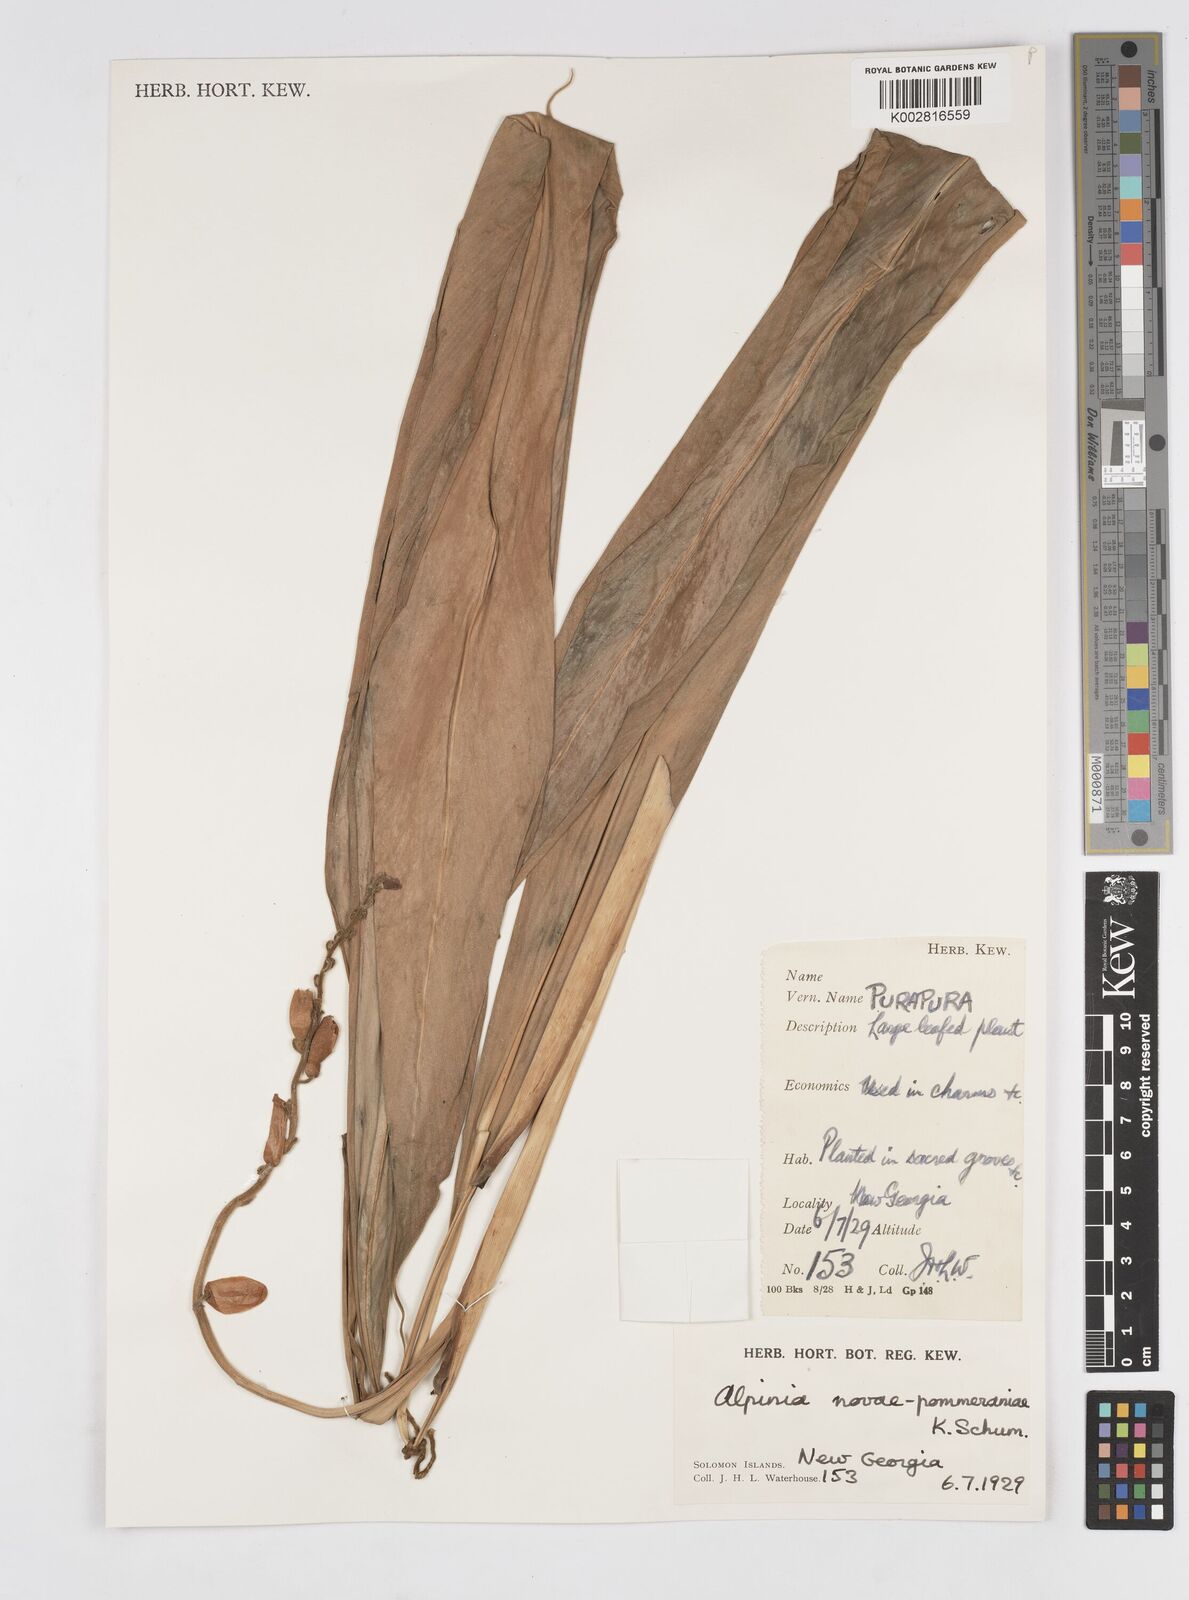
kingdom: Plantae
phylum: Tracheophyta
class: Liliopsida
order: Zingiberales
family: Zingiberaceae
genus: Alpinia
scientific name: Alpinia novae-pommeraniae
